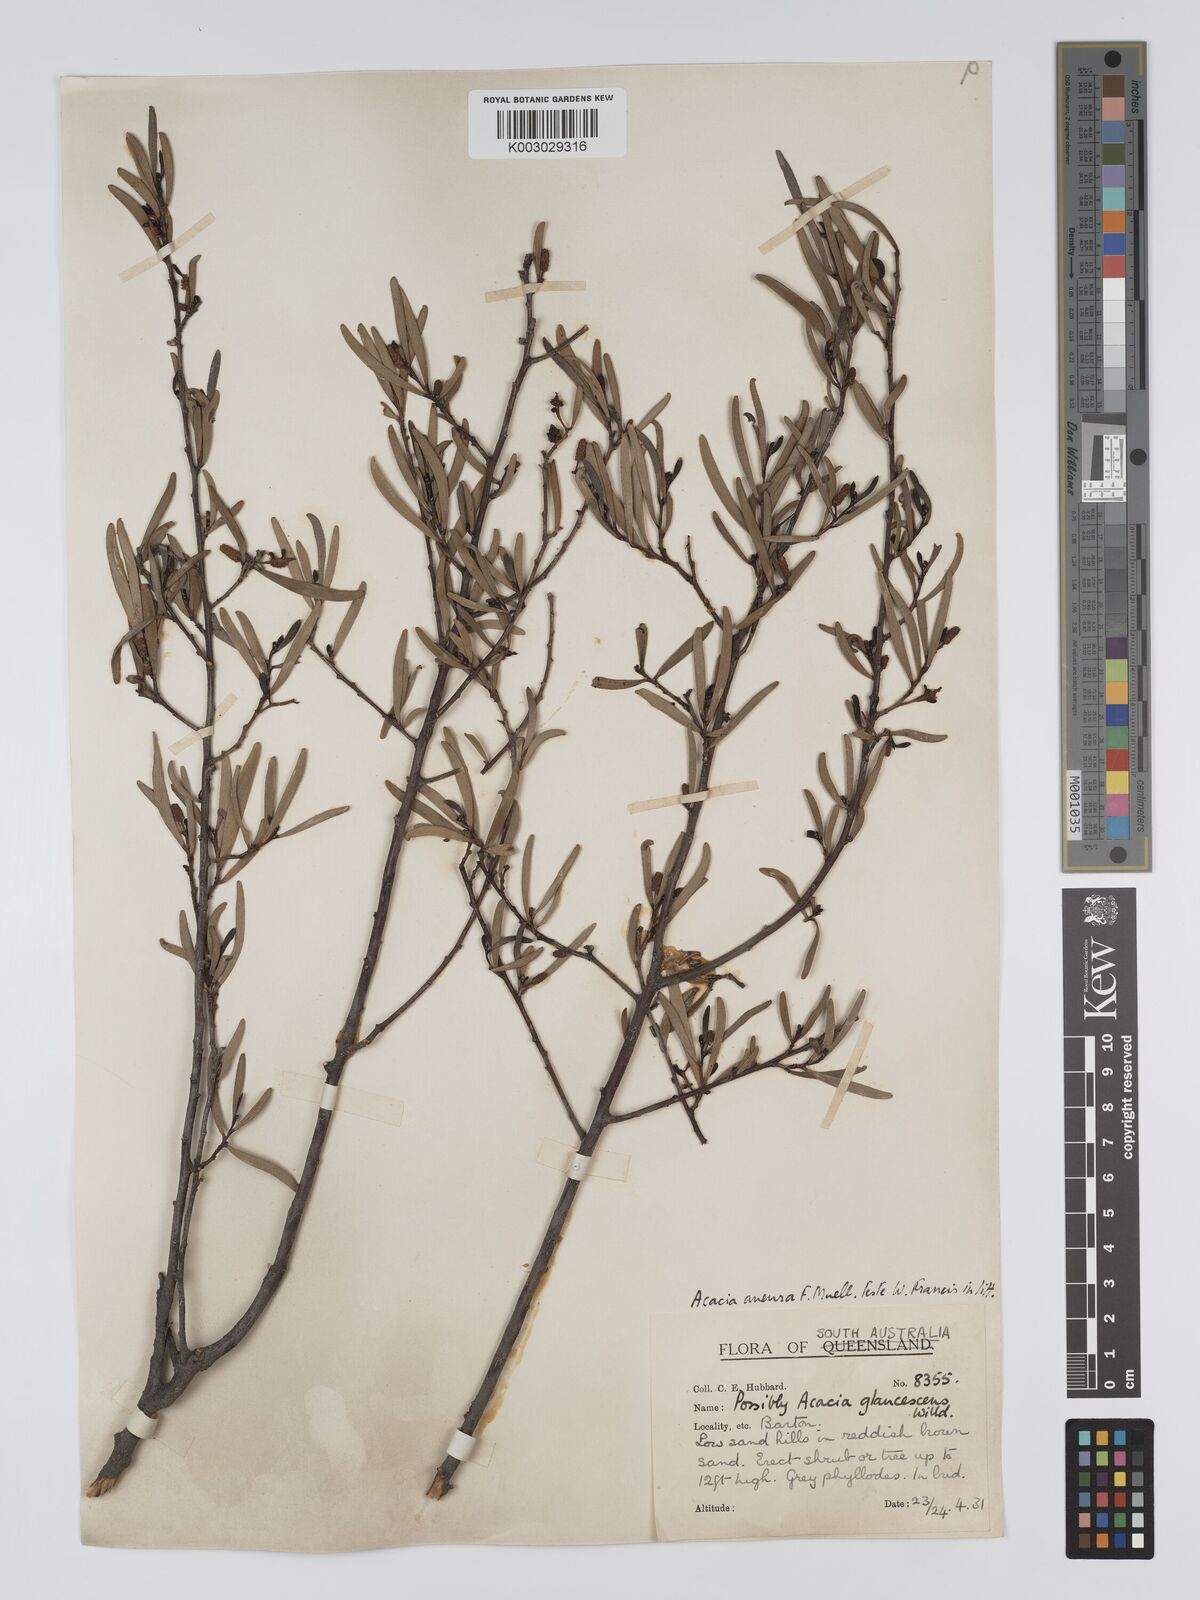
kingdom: Plantae
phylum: Tracheophyta
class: Magnoliopsida
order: Fabales
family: Fabaceae
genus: Acacia
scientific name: Acacia aneura
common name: Mulga
